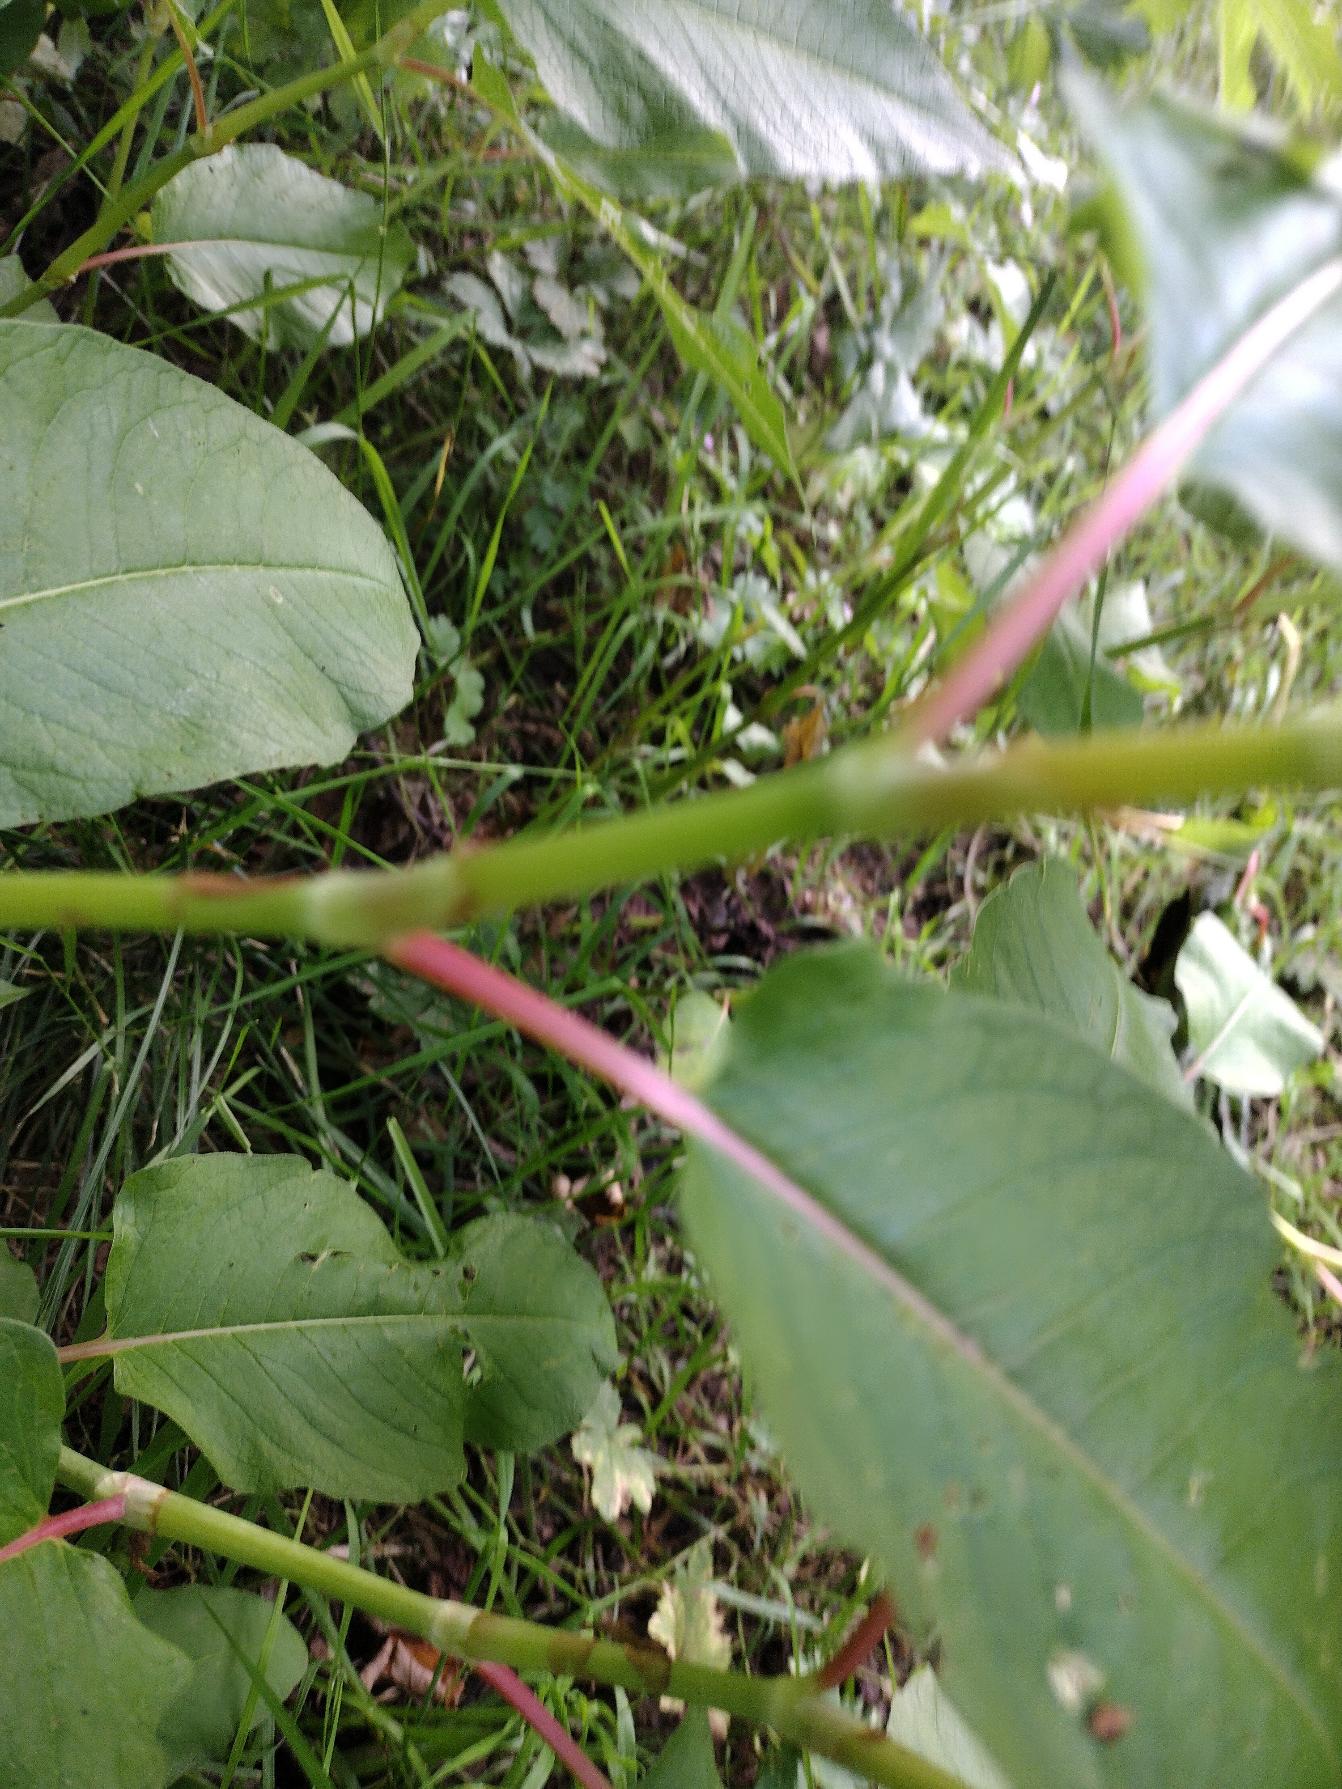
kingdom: Plantae
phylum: Tracheophyta
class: Magnoliopsida
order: Caryophyllales
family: Polygonaceae
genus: Koenigia
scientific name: Koenigia polystachya
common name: Syren-pileurt
